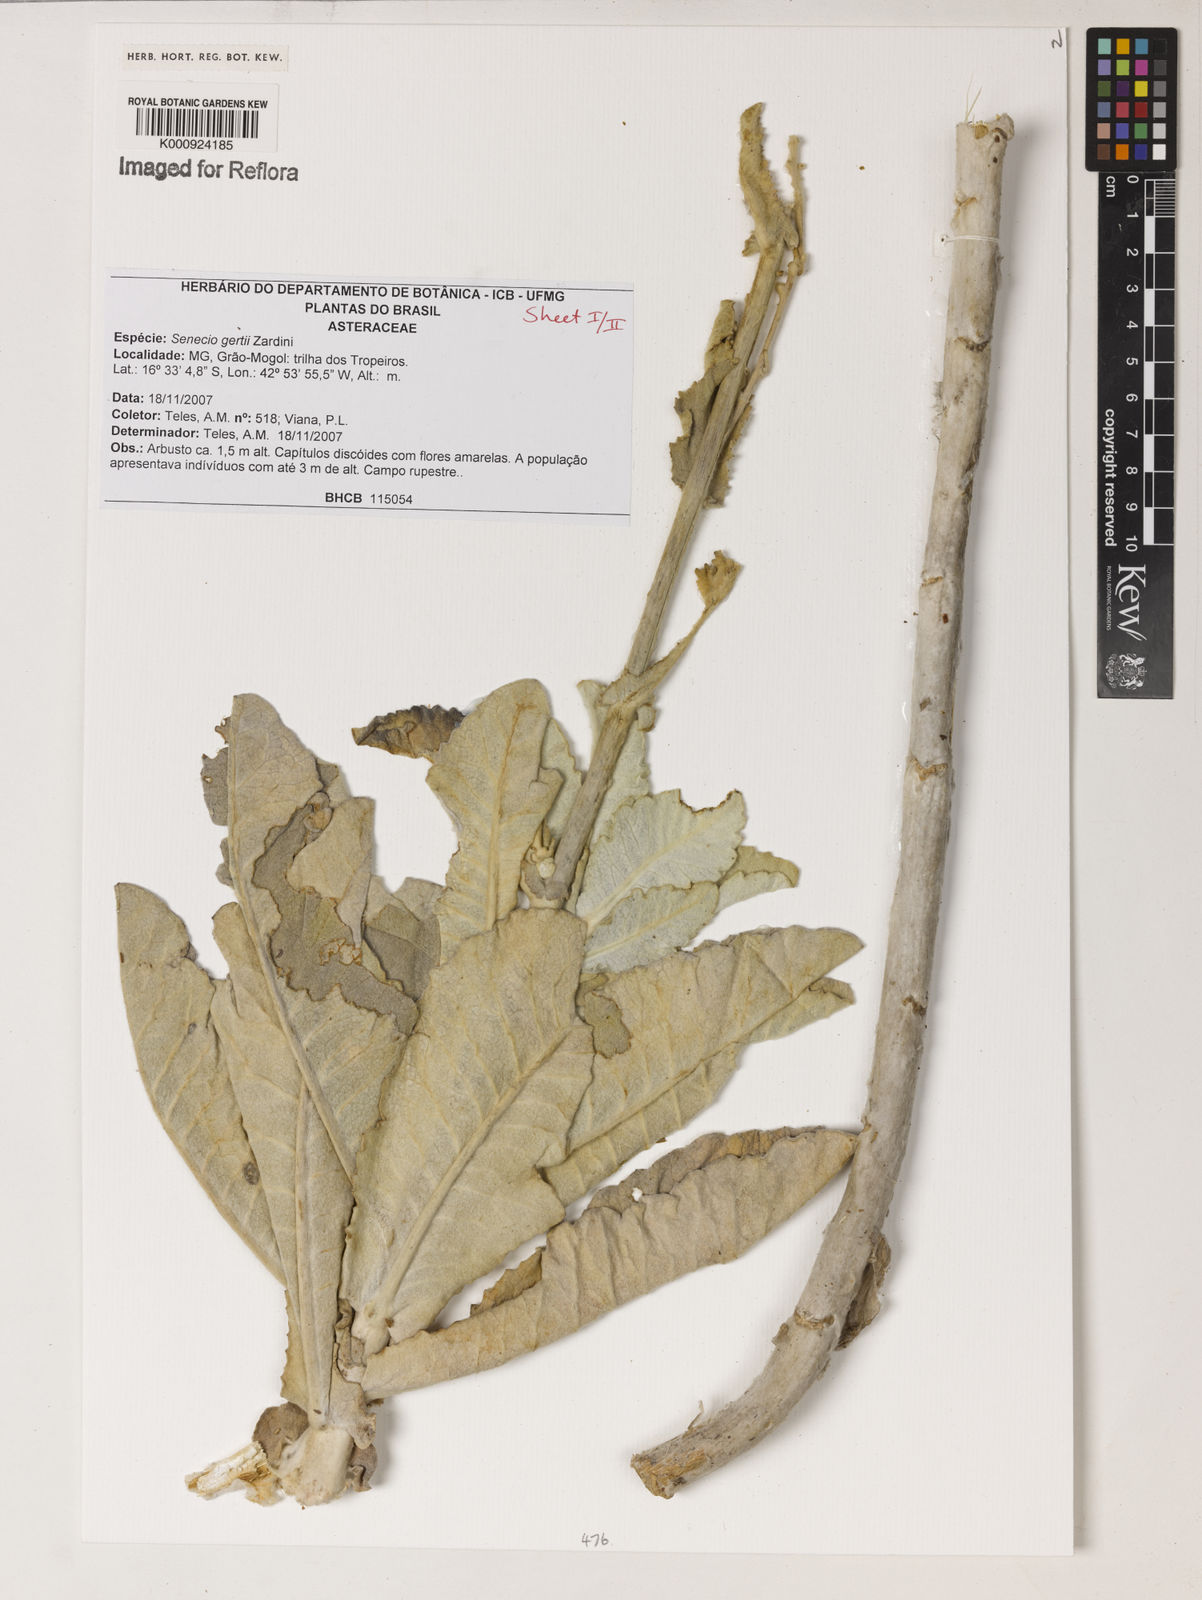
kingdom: Plantae
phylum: Tracheophyta
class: Magnoliopsida
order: Asterales
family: Asteraceae
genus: Senecio
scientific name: Senecio gertii
